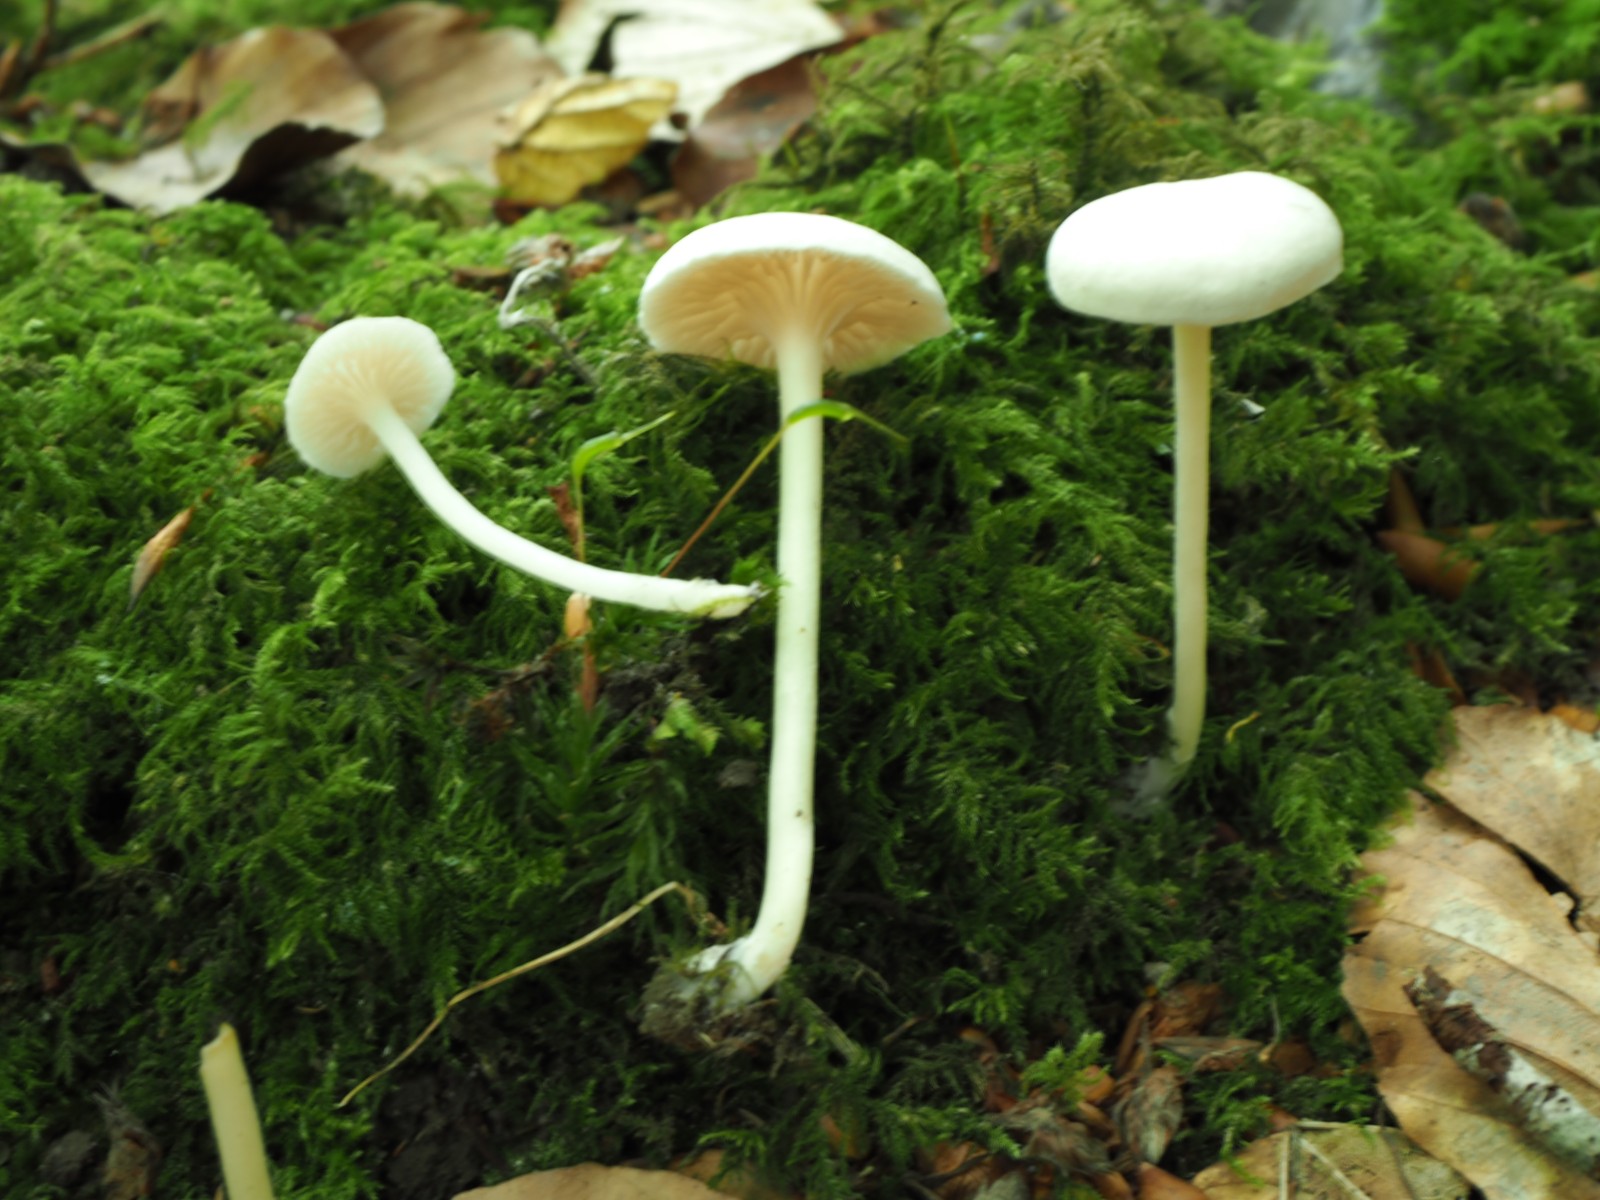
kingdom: Fungi
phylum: Basidiomycota
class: Agaricomycetes
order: Agaricales
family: Entolomataceae
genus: Entoloma
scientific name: Entoloma sericellum
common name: silkehvid rødblad
